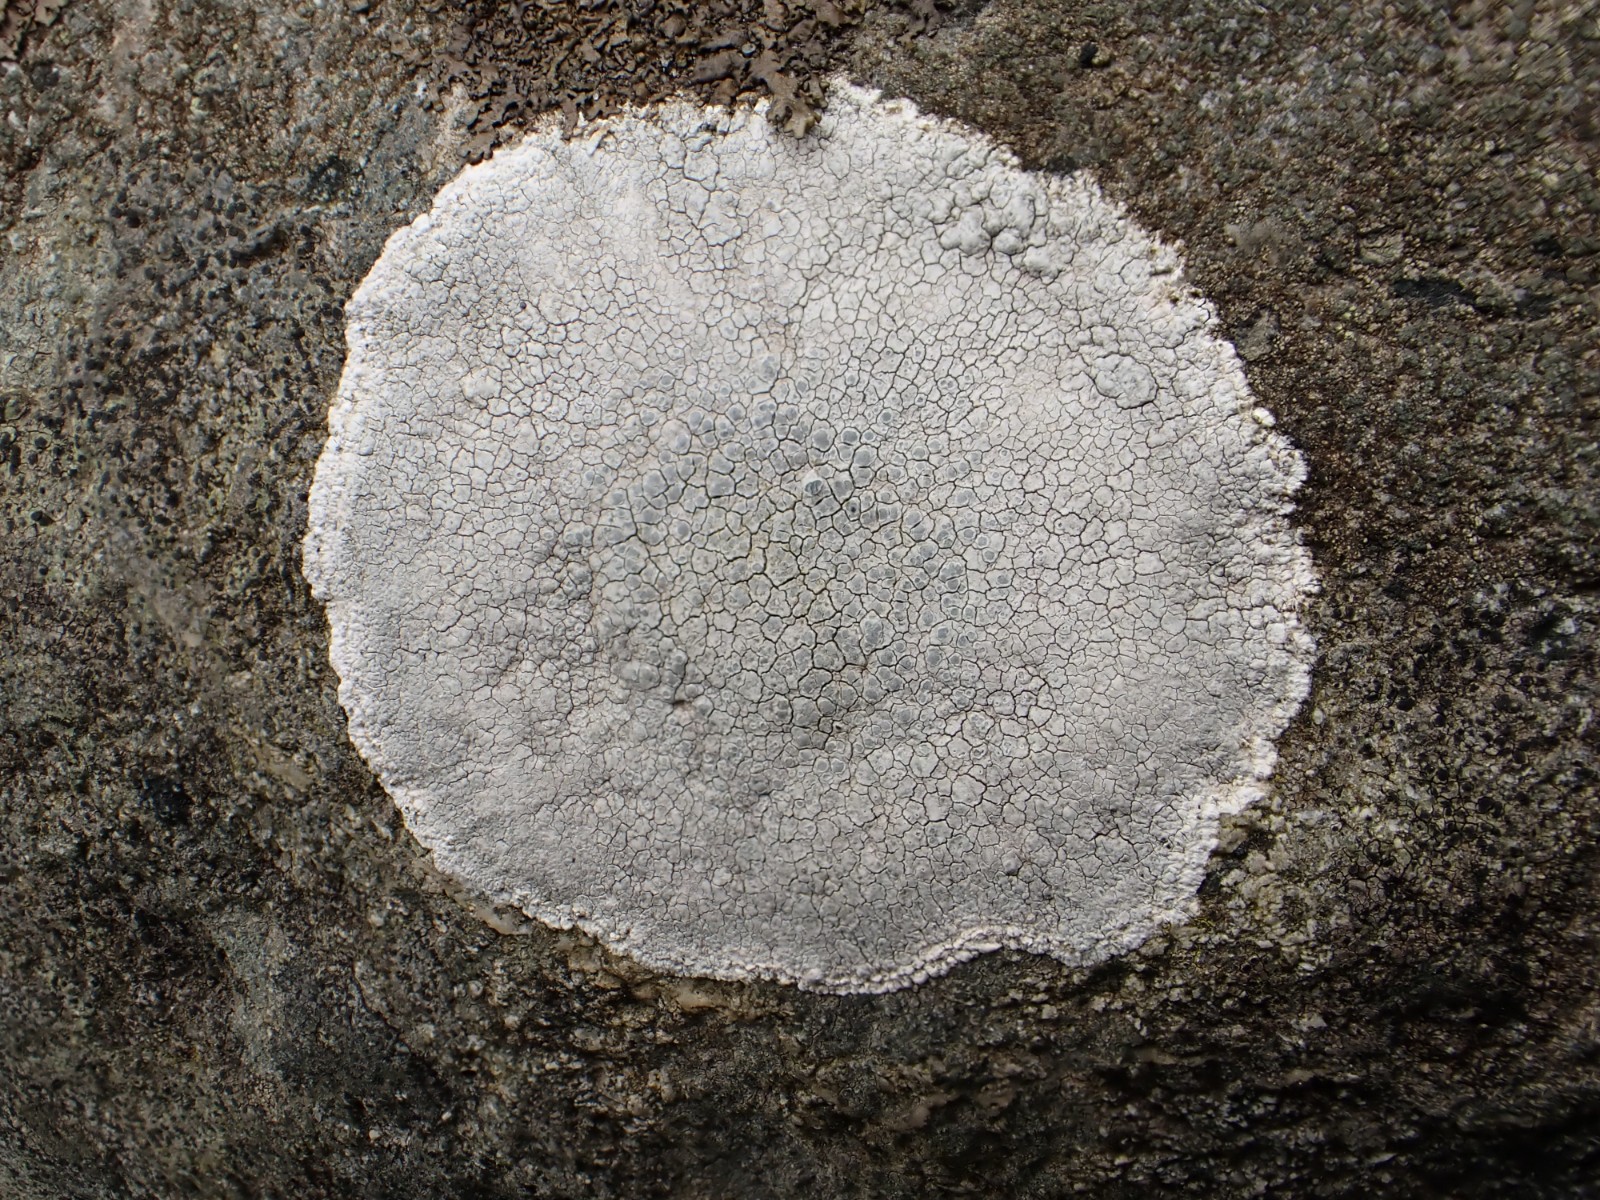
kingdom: Fungi
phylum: Ascomycota
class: Lecanoromycetes
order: Lecanorales
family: Lecanoraceae
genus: Glaucomaria
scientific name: Glaucomaria rupicola
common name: stengærde-kantskivelav
